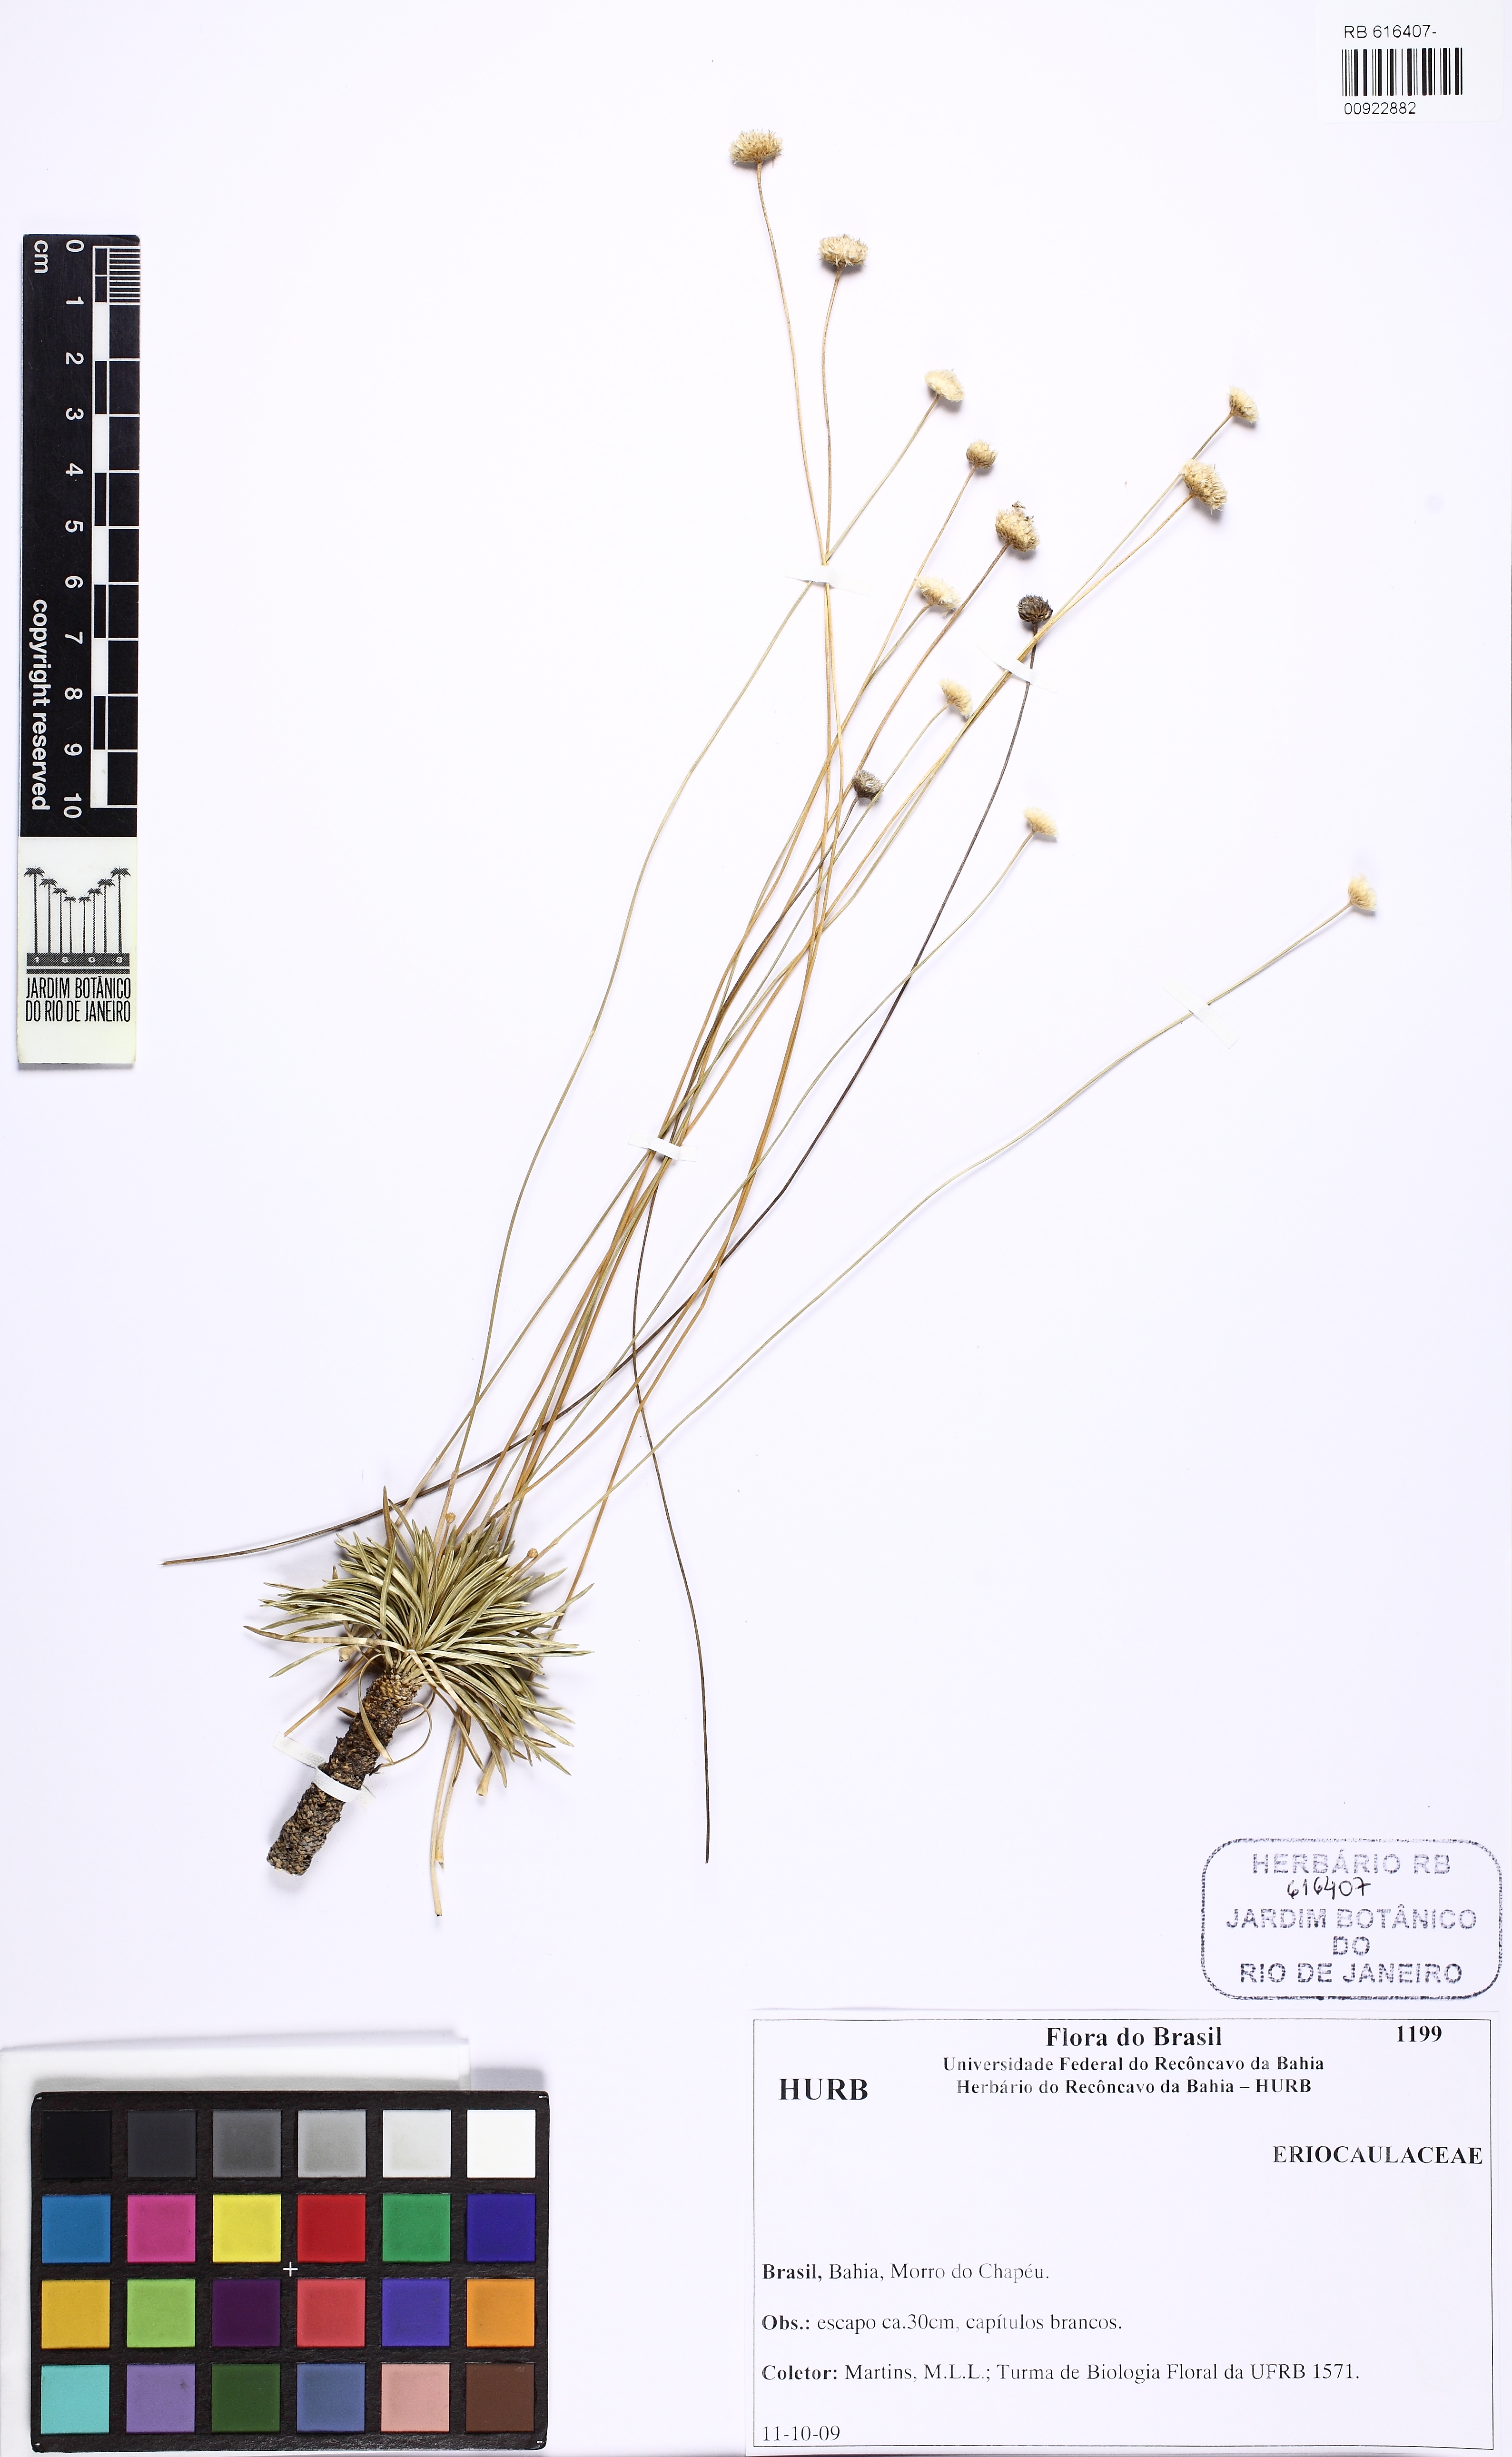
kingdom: Plantae
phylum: Tracheophyta
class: Liliopsida
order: Poales
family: Eriocaulaceae
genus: Comanthera
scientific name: Comanthera hatschbachii
